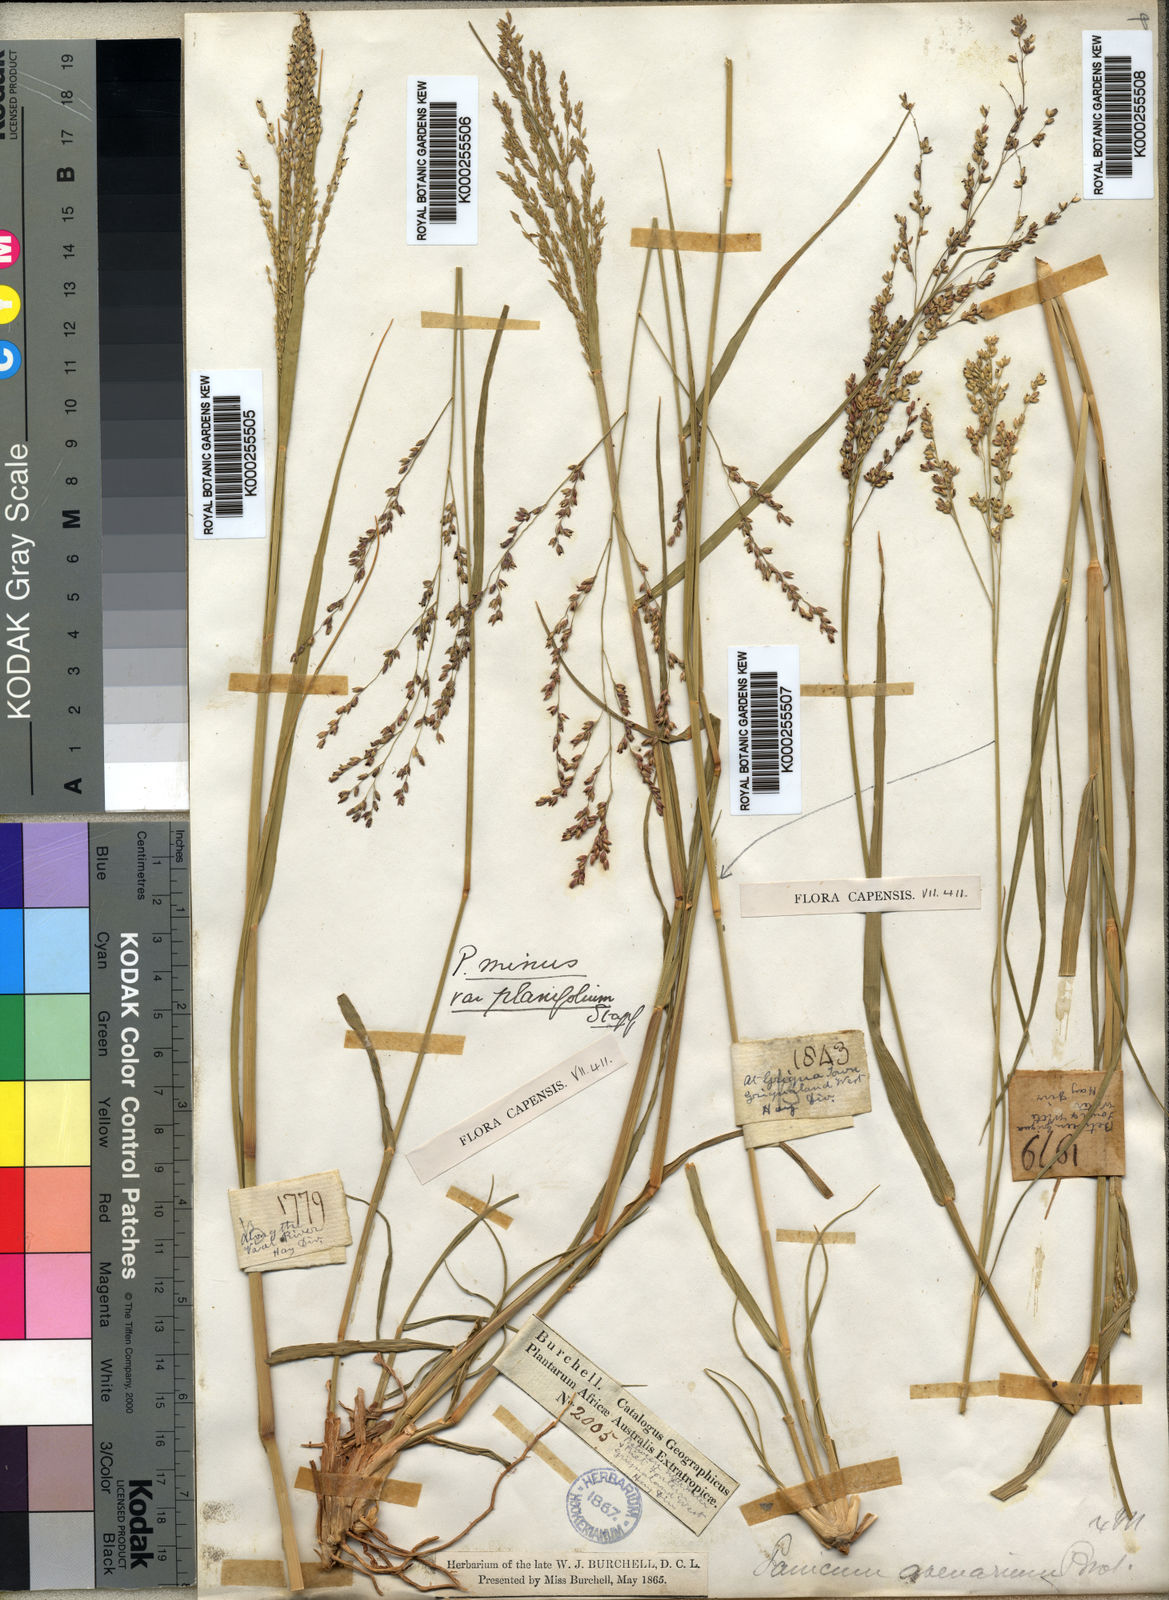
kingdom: Plantae
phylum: Tracheophyta
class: Liliopsida
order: Poales
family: Poaceae
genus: Panicum
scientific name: Panicum stapfianum
